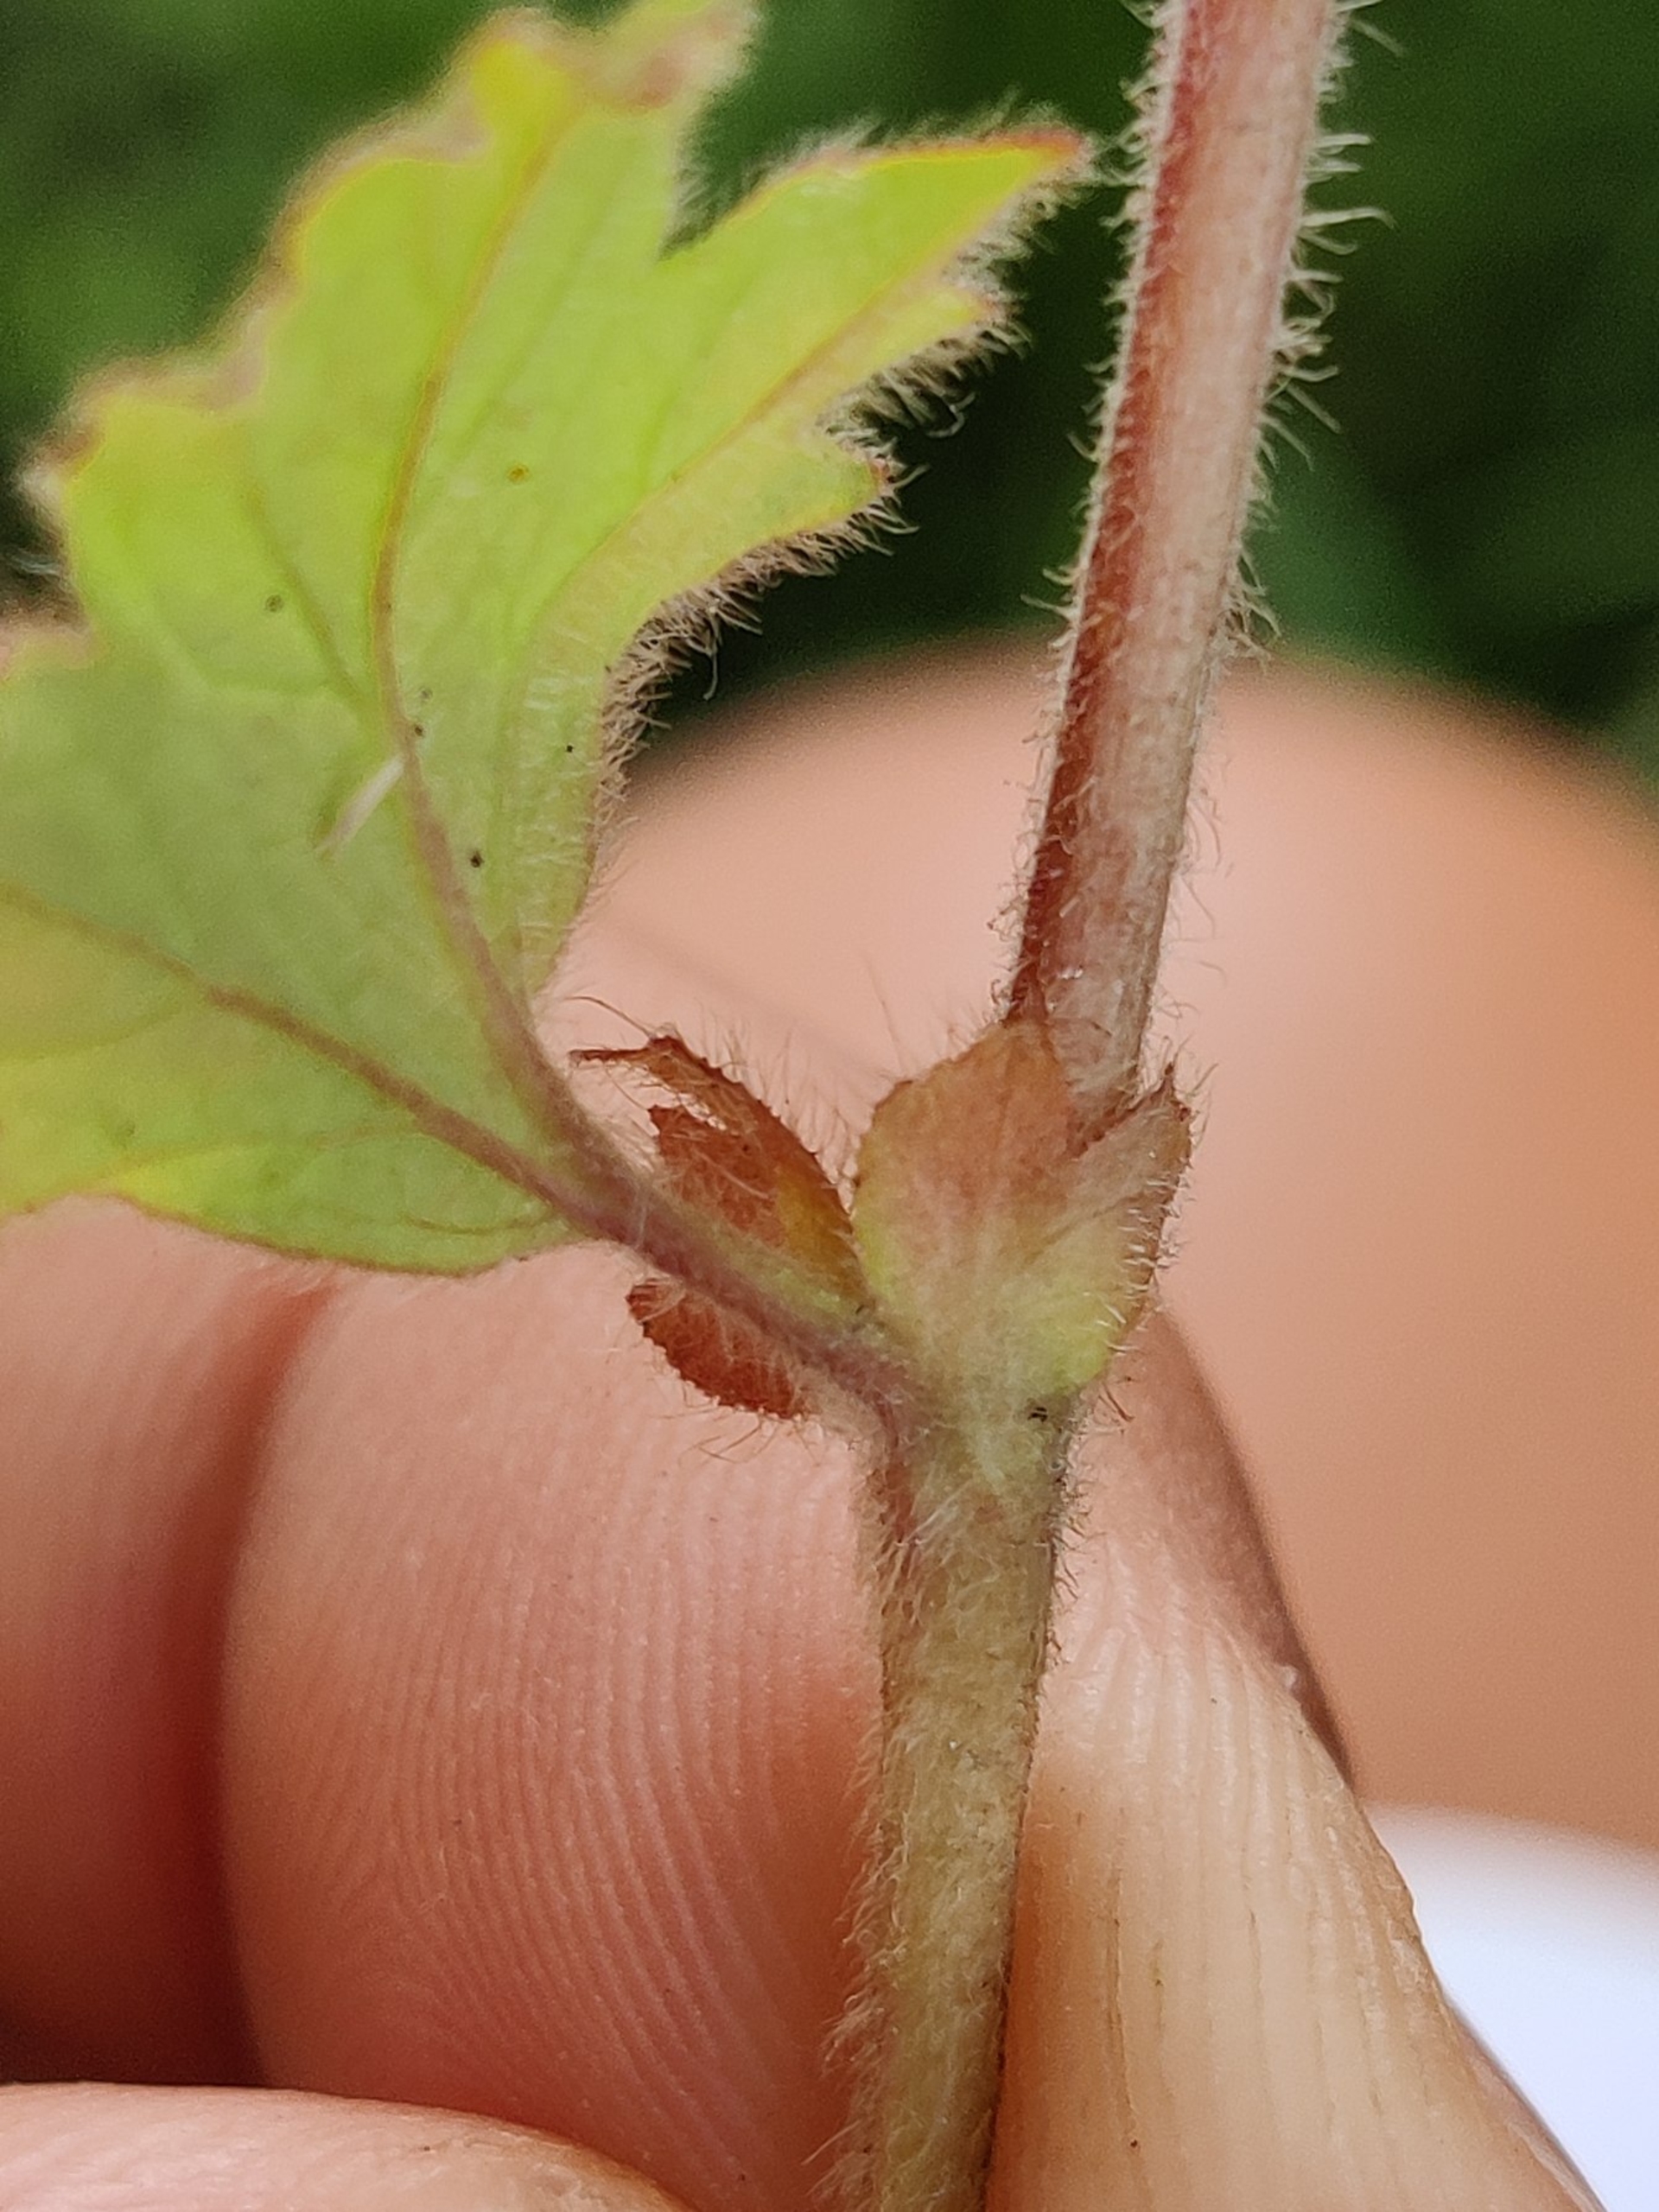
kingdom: Plantae
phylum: Tracheophyta
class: Magnoliopsida
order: Rosales
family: Rosaceae
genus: Geum
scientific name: Geum rivale
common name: Eng-nellikerod
